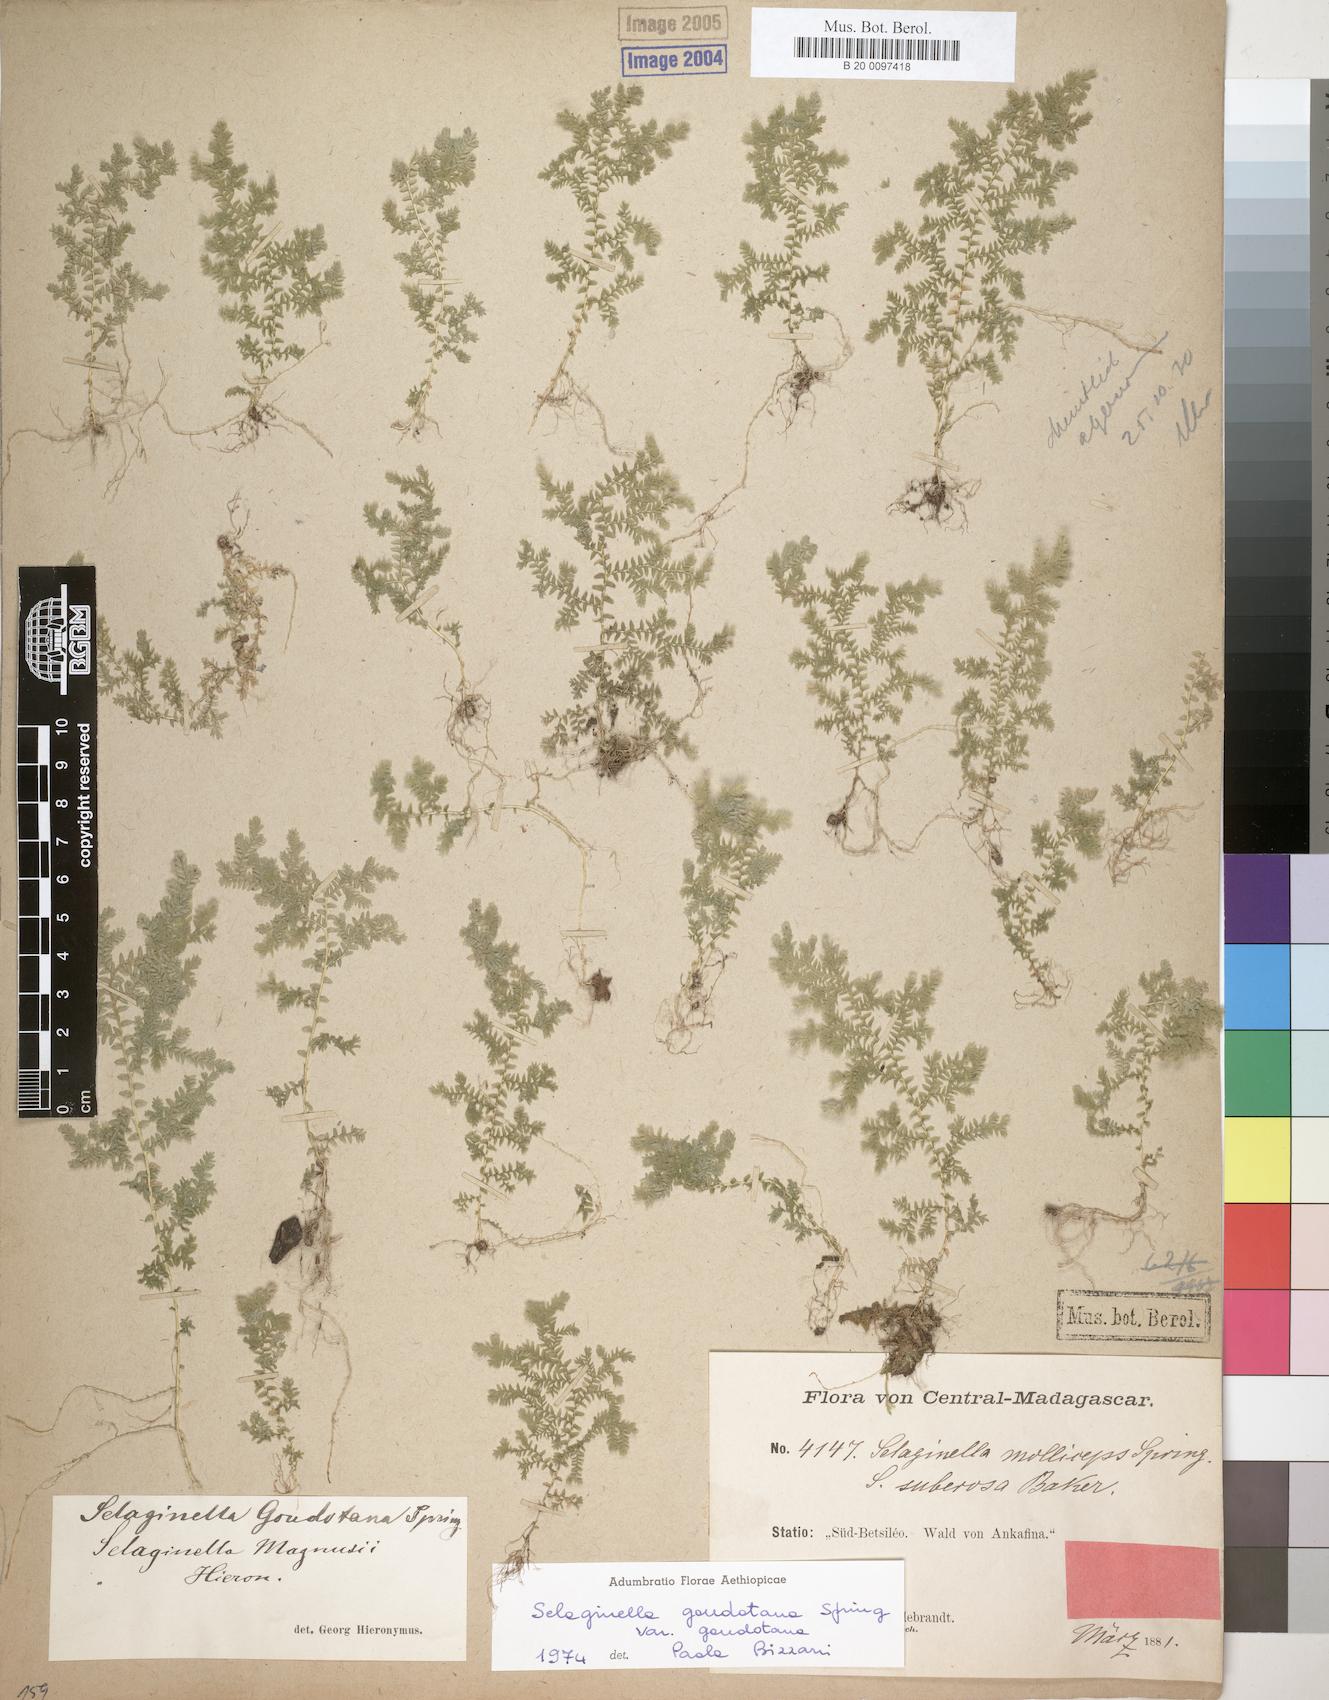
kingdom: Plantae
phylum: Tracheophyta
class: Lycopodiopsida
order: Selaginellales
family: Selaginellaceae
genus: Selaginella
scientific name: Selaginella goudotiana
